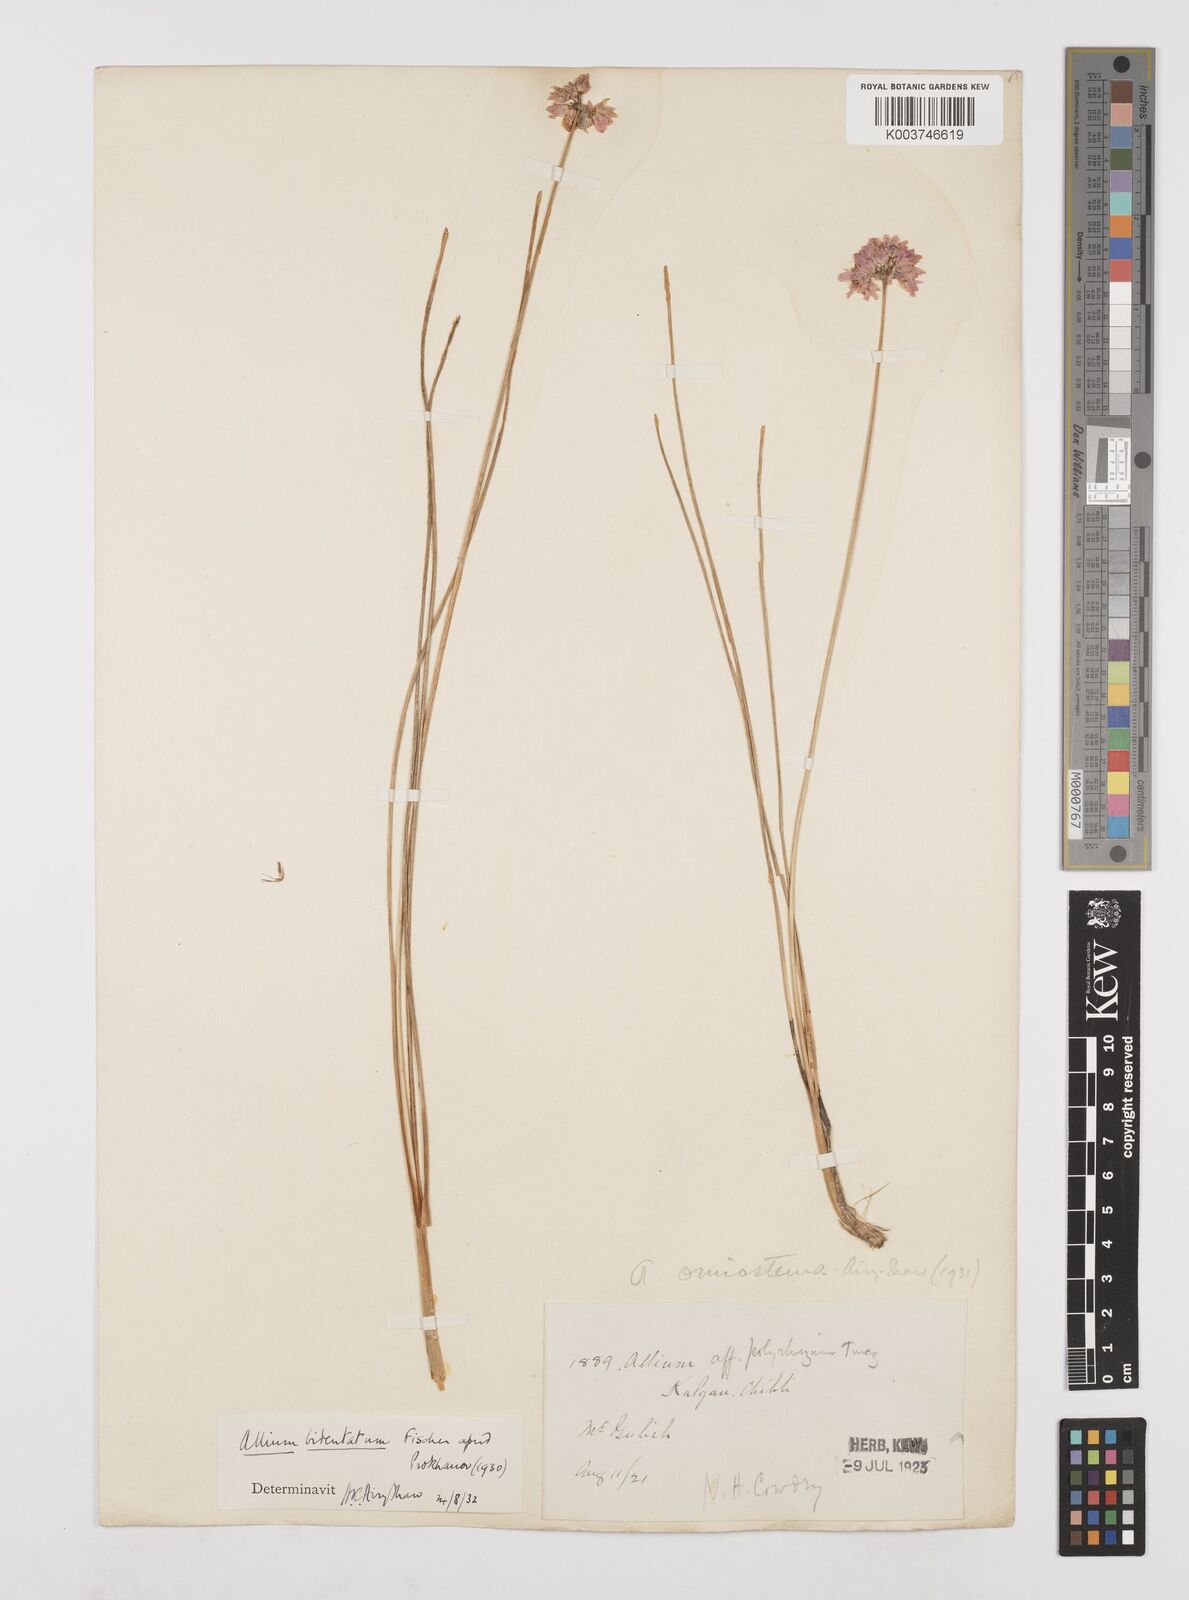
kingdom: Plantae
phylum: Tracheophyta
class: Liliopsida
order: Asparagales
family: Amaryllidaceae
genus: Allium
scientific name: Allium bidentatum
